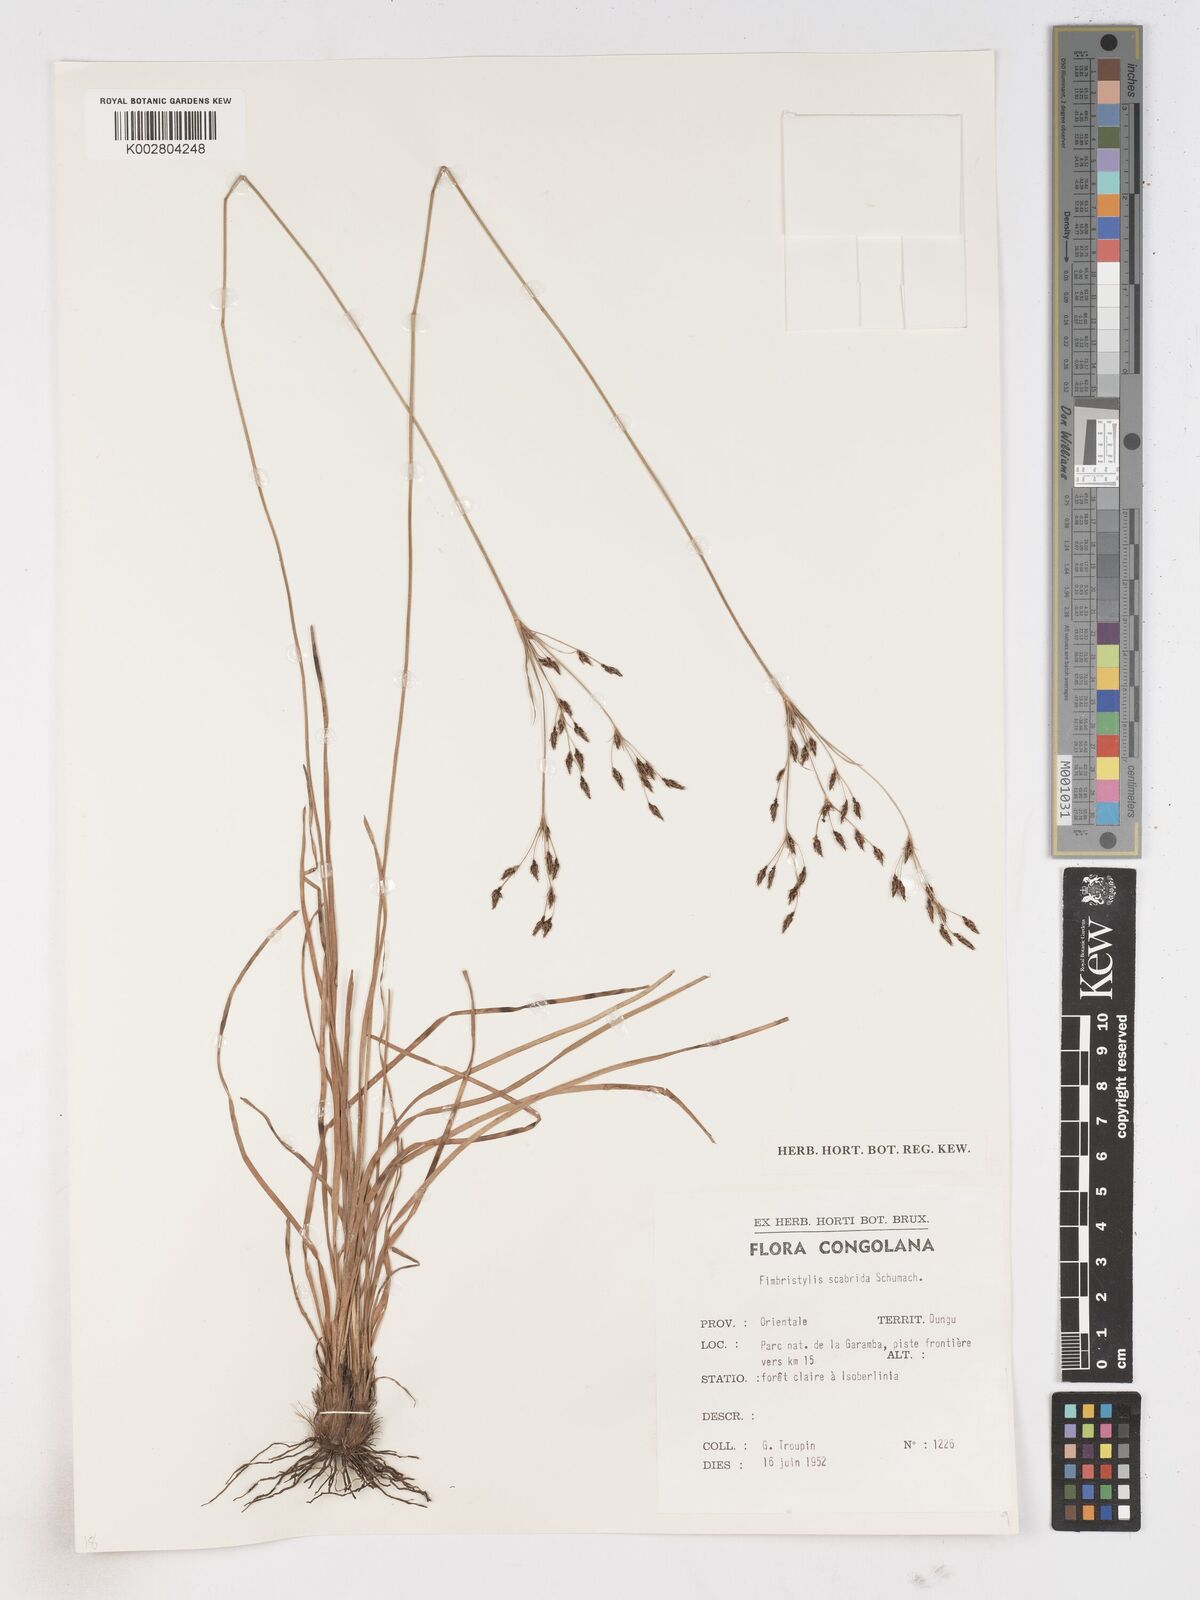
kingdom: Plantae
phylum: Tracheophyta
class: Liliopsida
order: Poales
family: Cyperaceae
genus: Fimbristylis
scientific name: Fimbristylis scabrida
